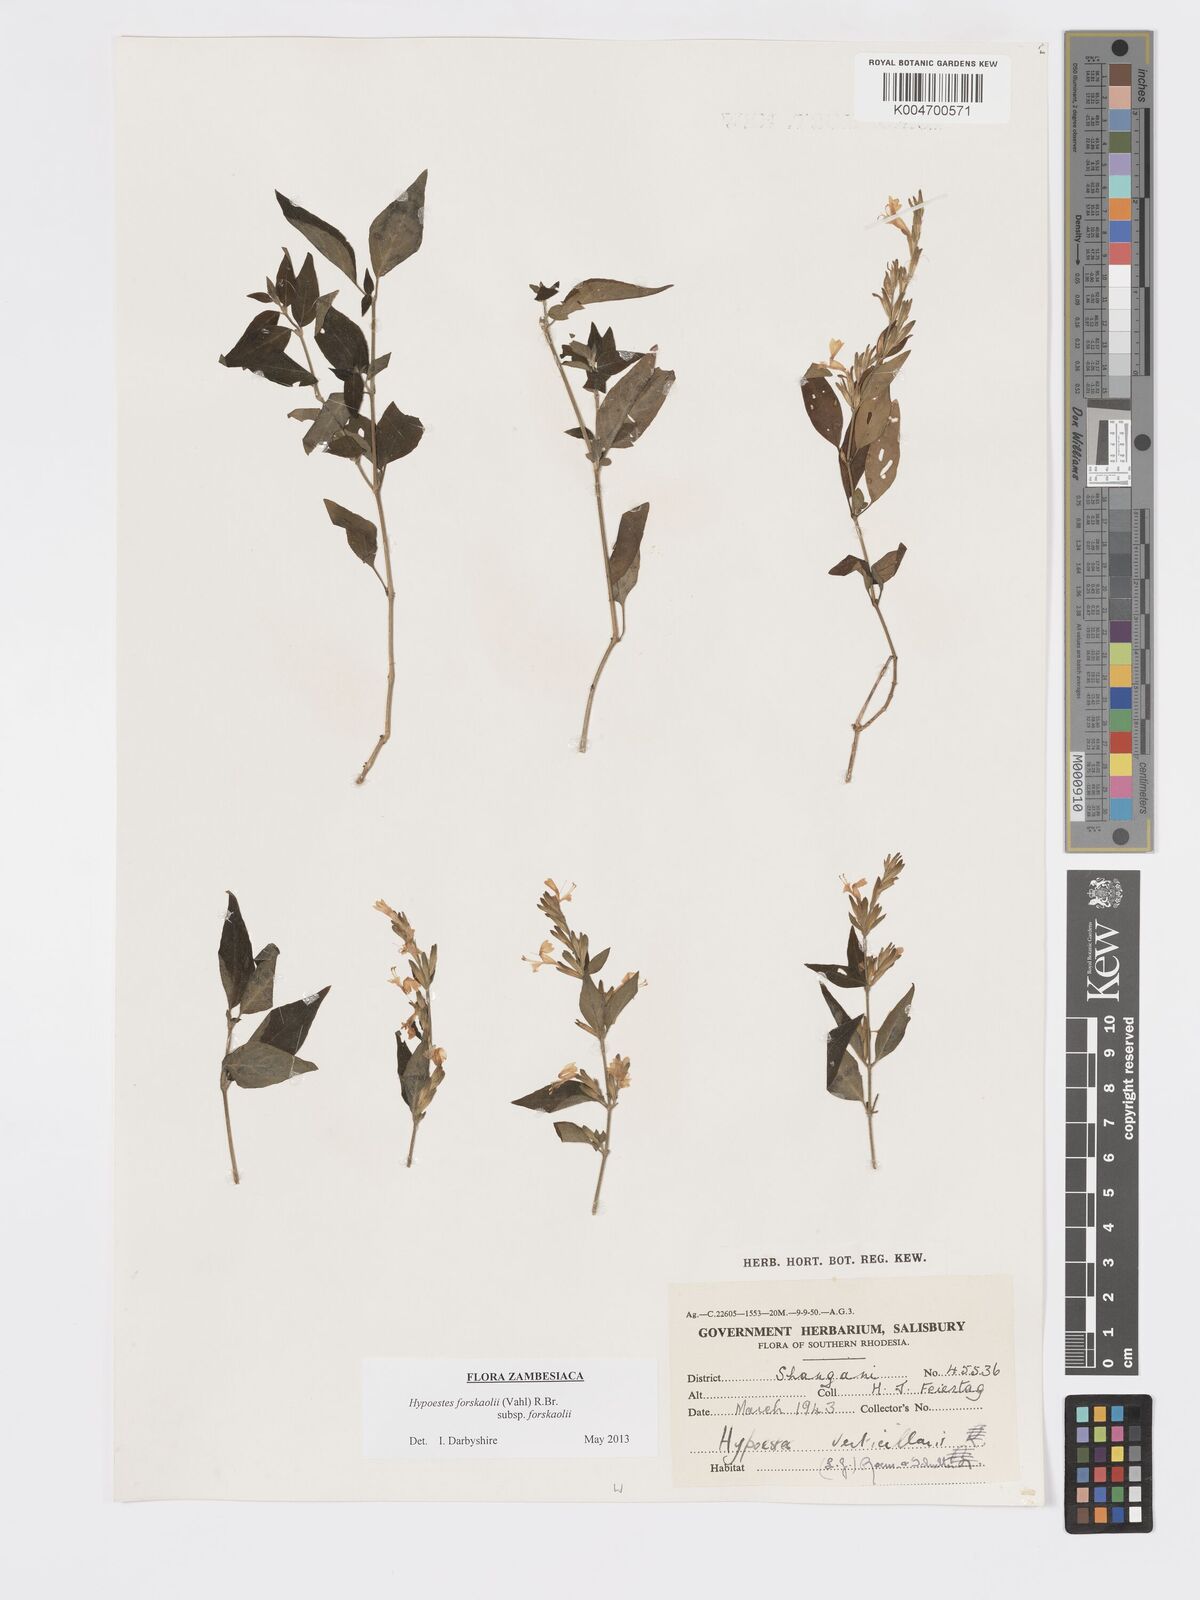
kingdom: Plantae
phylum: Tracheophyta
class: Magnoliopsida
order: Lamiales
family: Acanthaceae
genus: Hypoestes
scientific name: Hypoestes forskaolii
